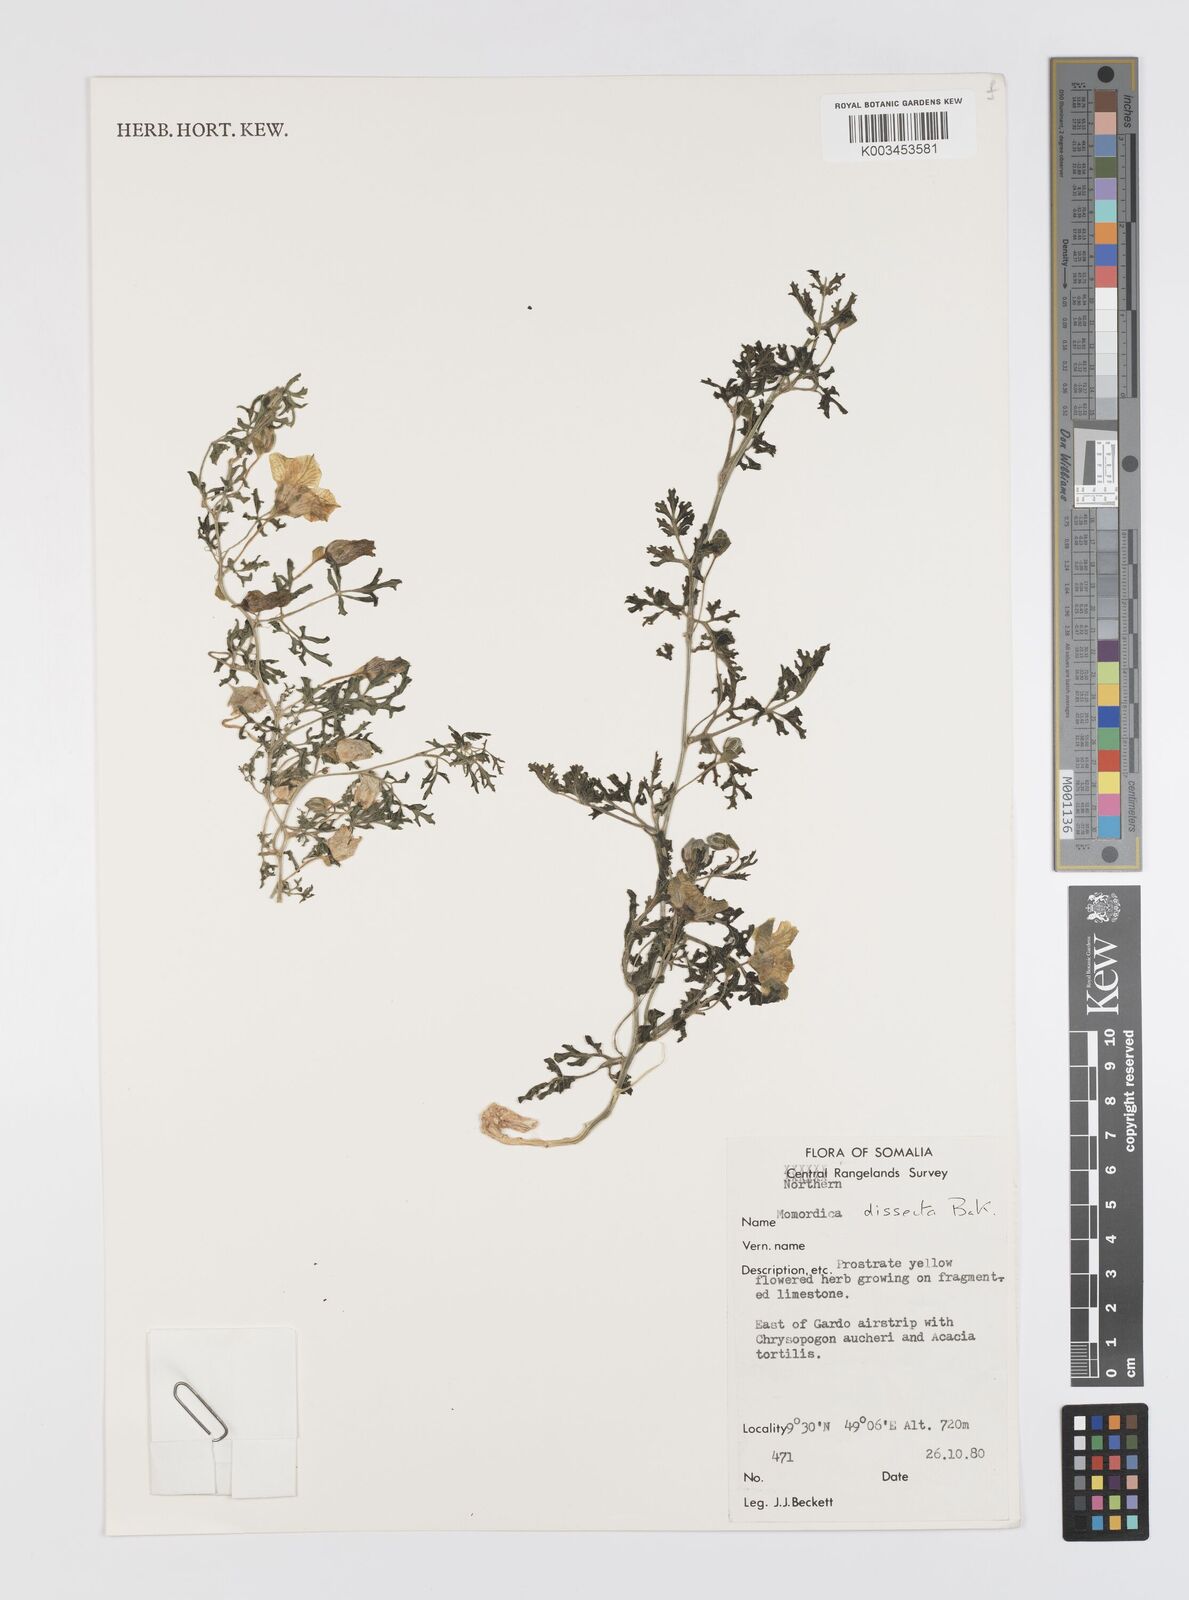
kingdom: Plantae
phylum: Tracheophyta
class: Magnoliopsida
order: Cucurbitales
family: Cucurbitaceae
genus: Momordica
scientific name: Momordica dissecta
